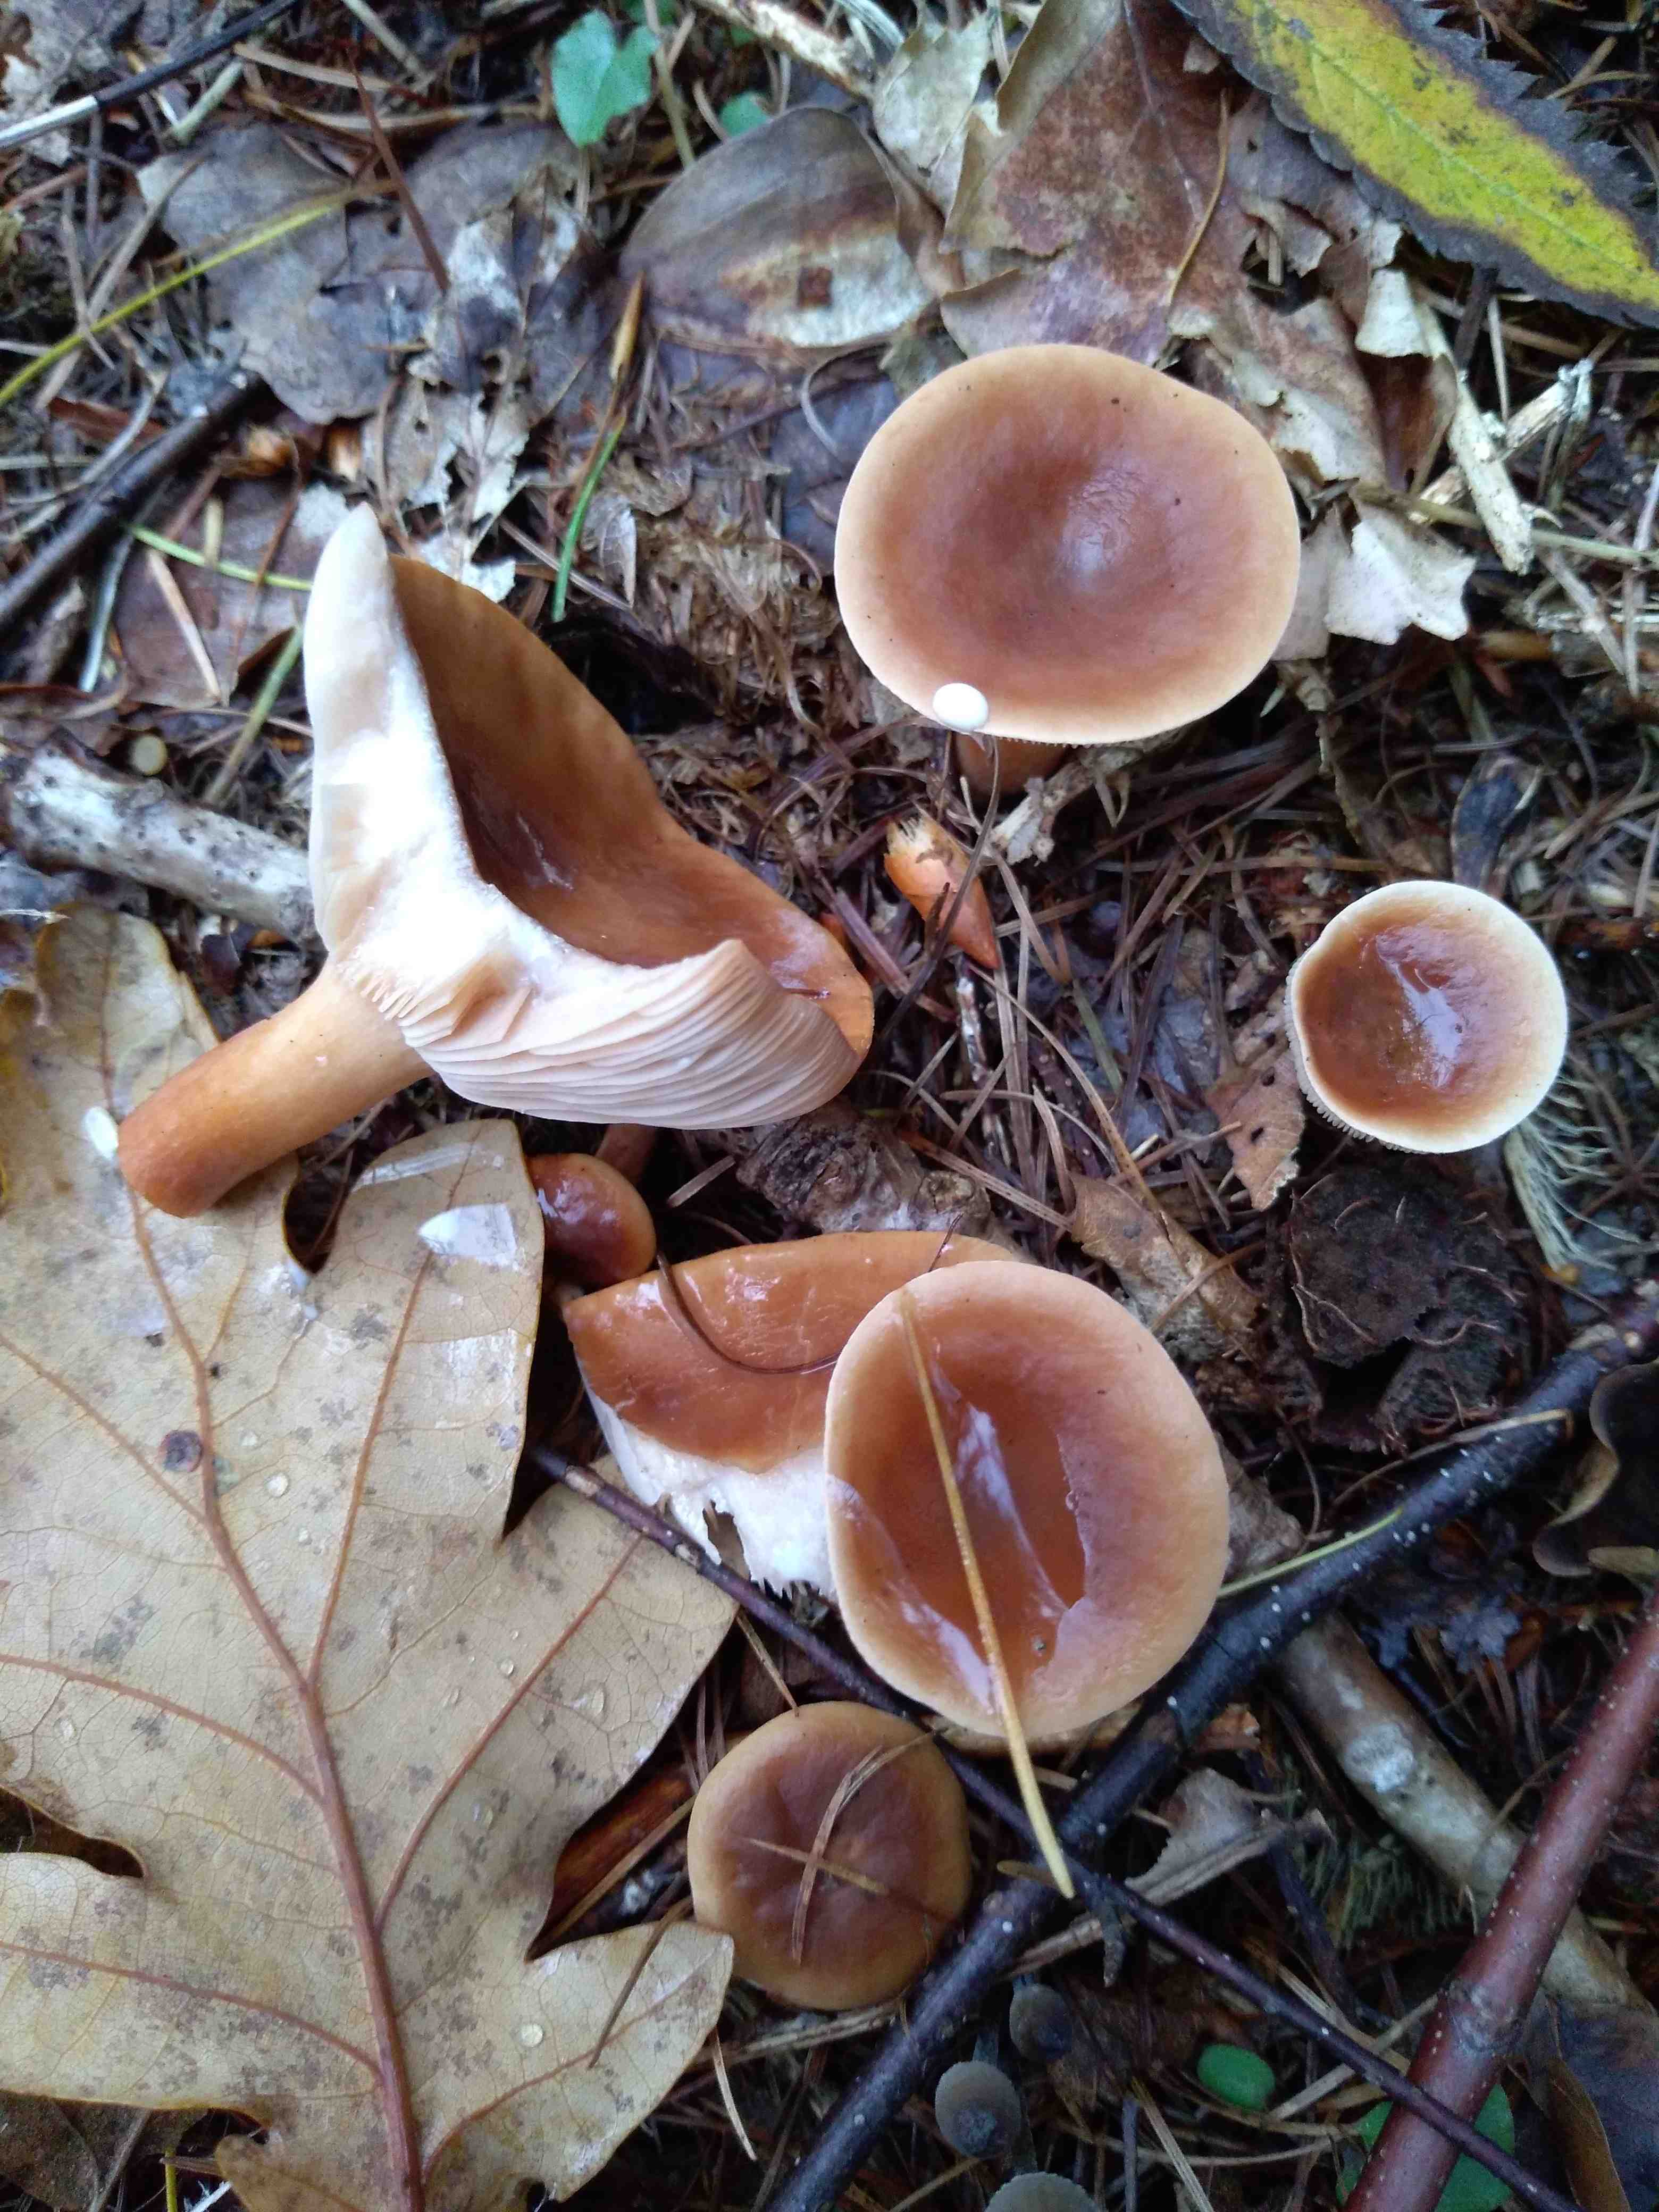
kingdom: Fungi
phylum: Basidiomycota
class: Agaricomycetes
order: Russulales
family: Russulaceae
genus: Lactarius
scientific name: Lactarius subdulcis
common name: sødlig mælkehat
